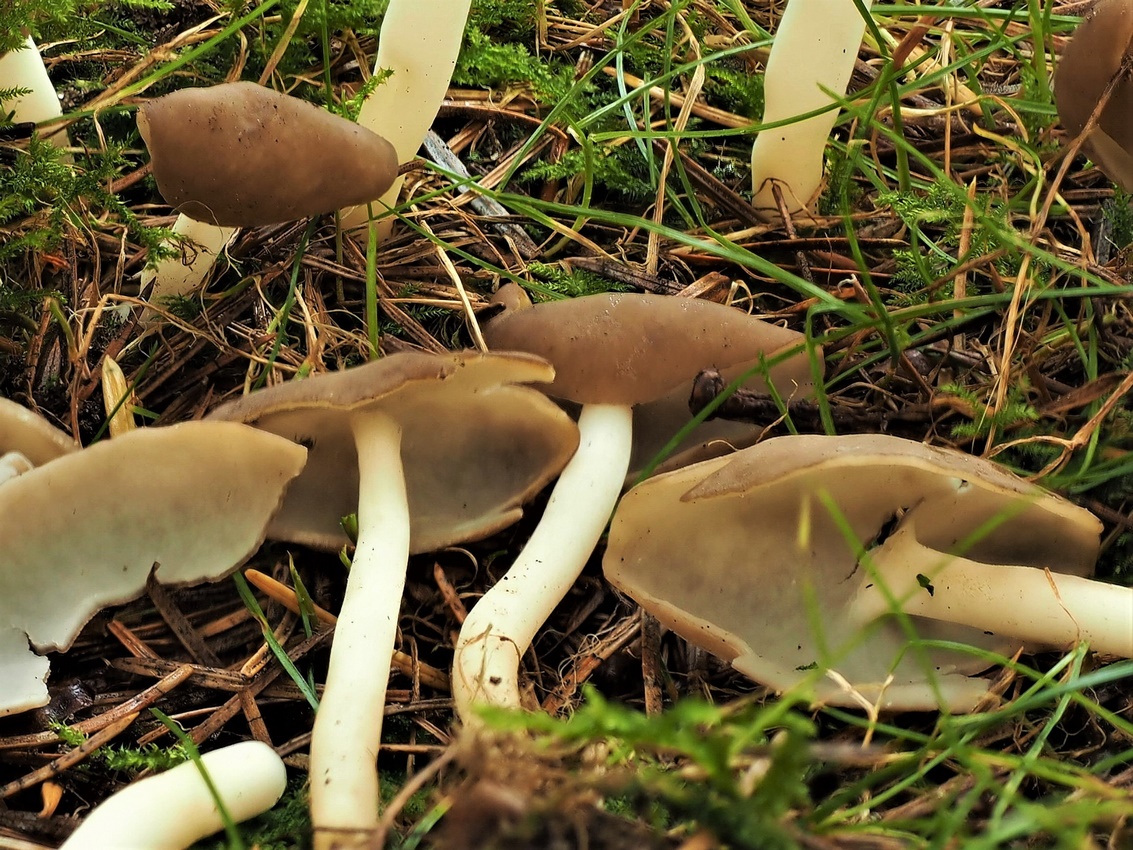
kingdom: Fungi
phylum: Ascomycota
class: Pezizomycetes
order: Pezizales
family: Helvellaceae
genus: Helvella
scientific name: Helvella elastica
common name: elastik-foldhat
